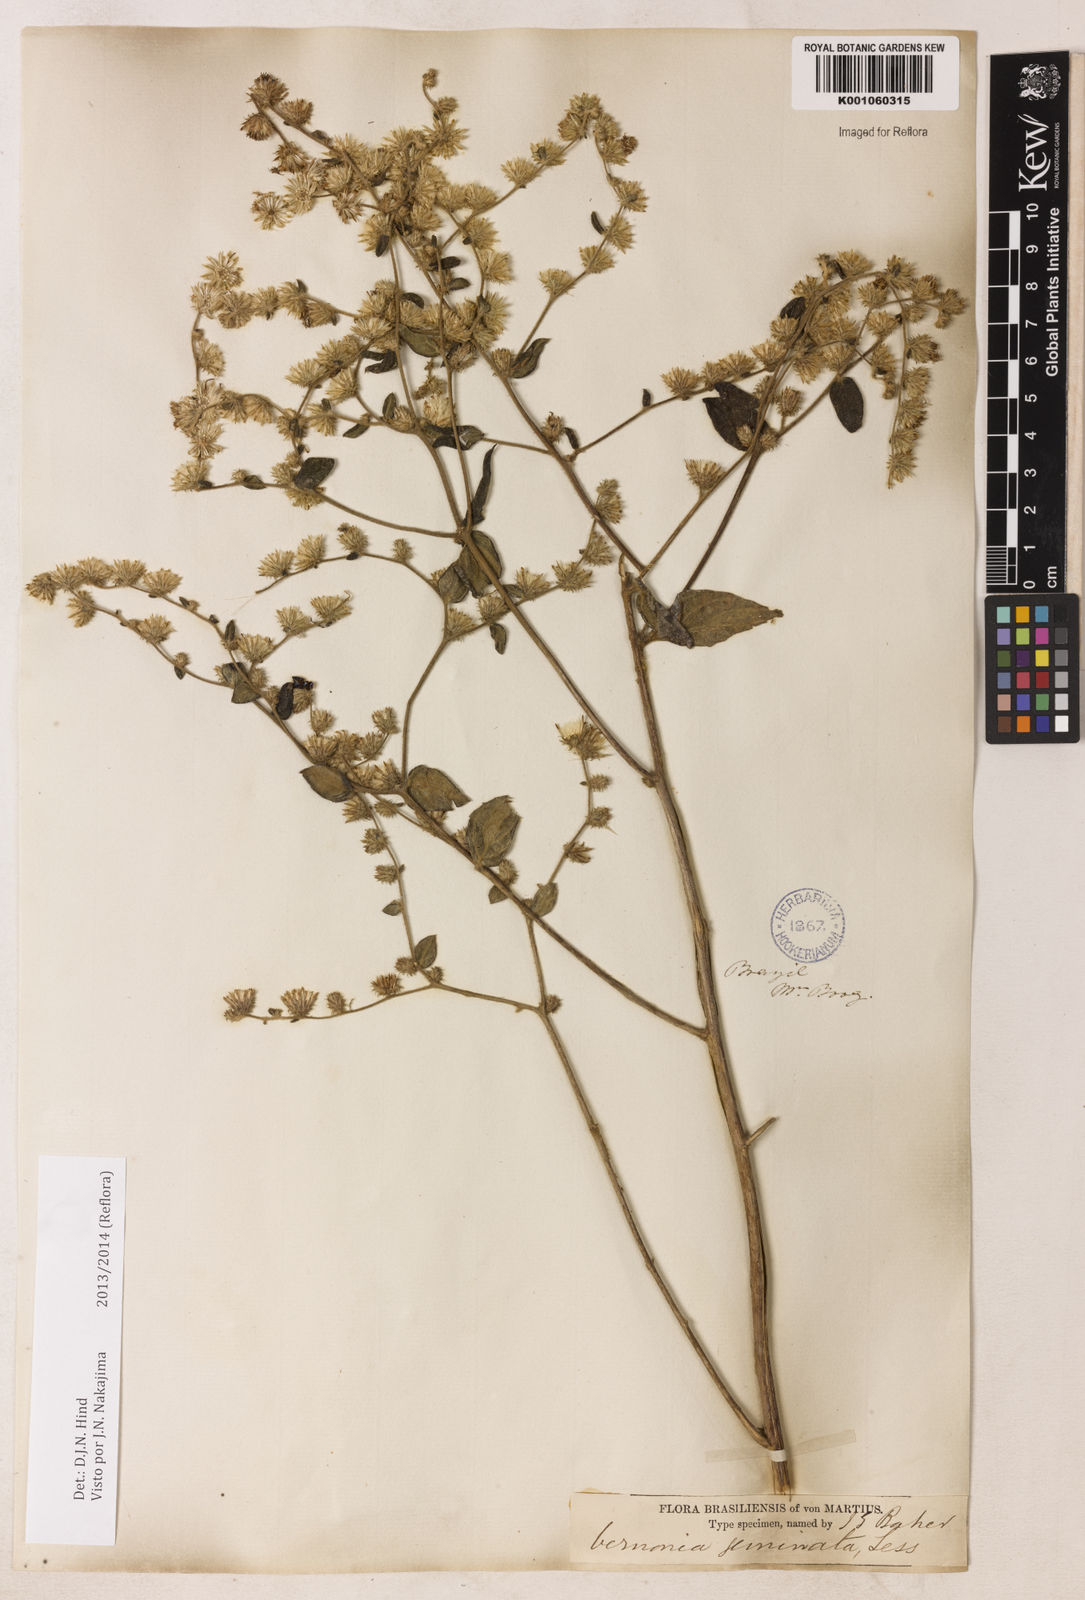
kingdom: Plantae
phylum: Tracheophyta
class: Magnoliopsida
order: Asterales
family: Asteraceae
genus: Lepidaploa
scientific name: Lepidaploa canescens
